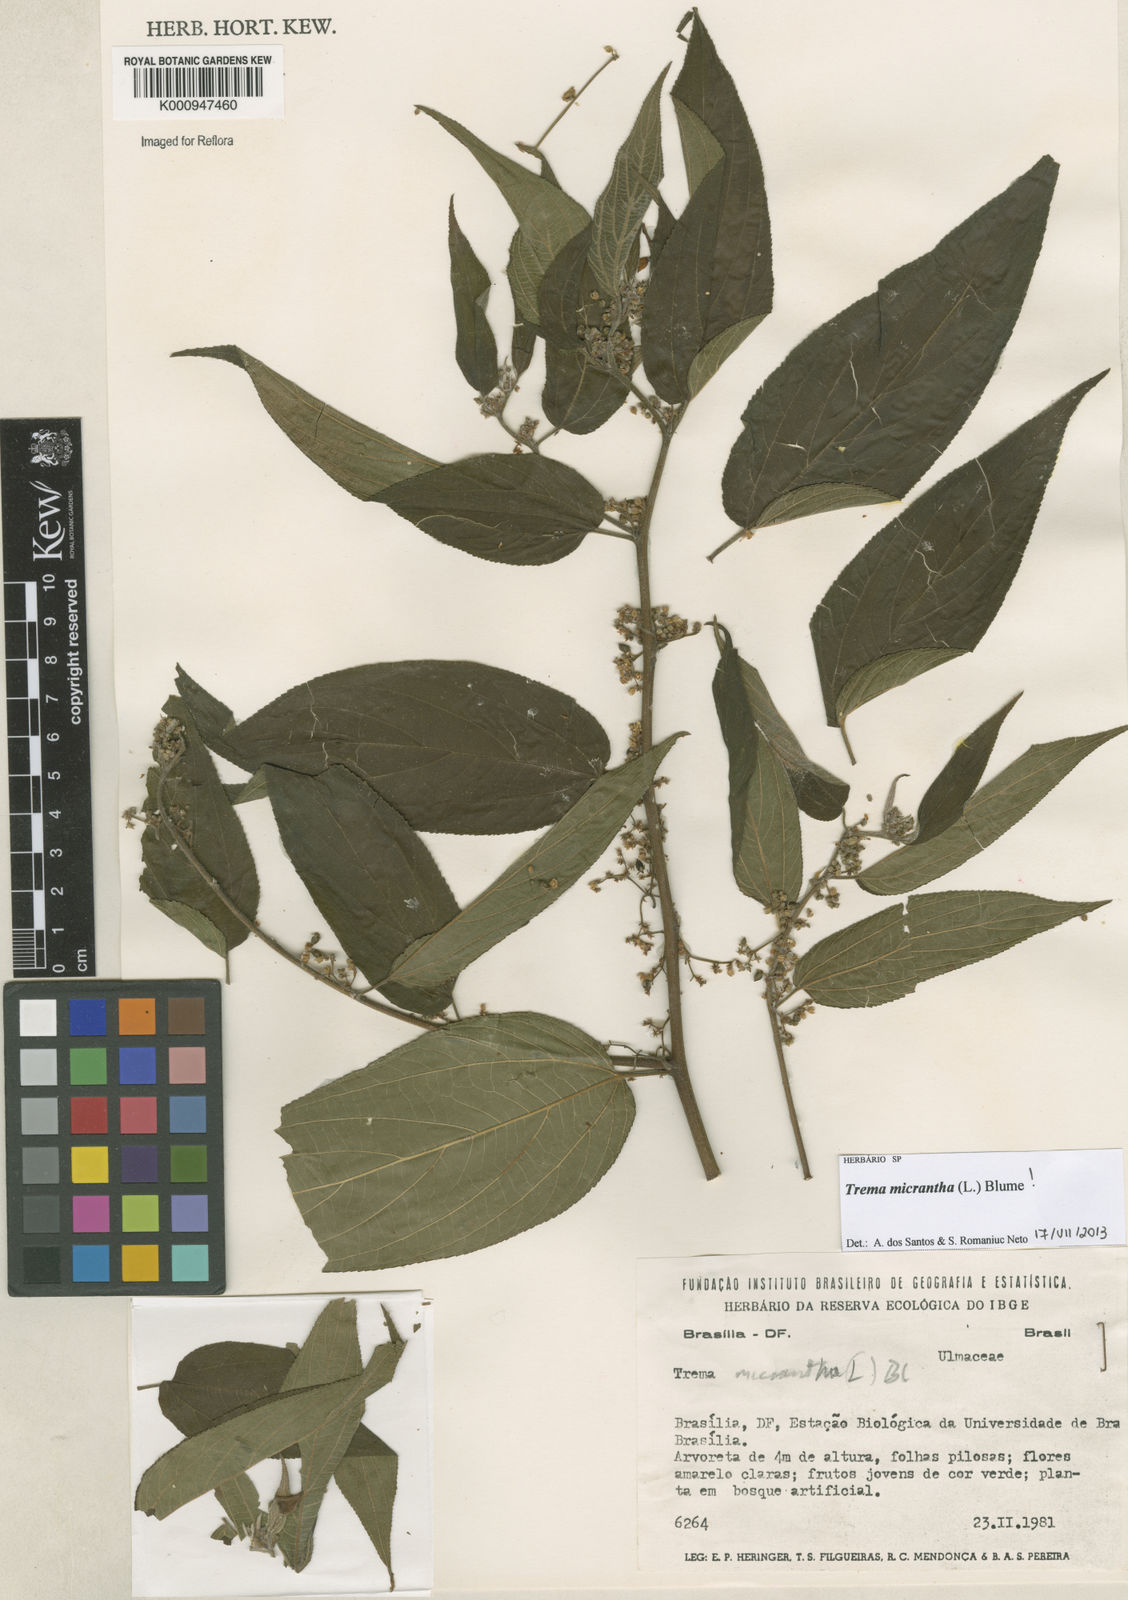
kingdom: Plantae
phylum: Tracheophyta
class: Magnoliopsida
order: Rosales
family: Cannabaceae
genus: Trema
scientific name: Trema micranthum
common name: Jamaican nettletree
